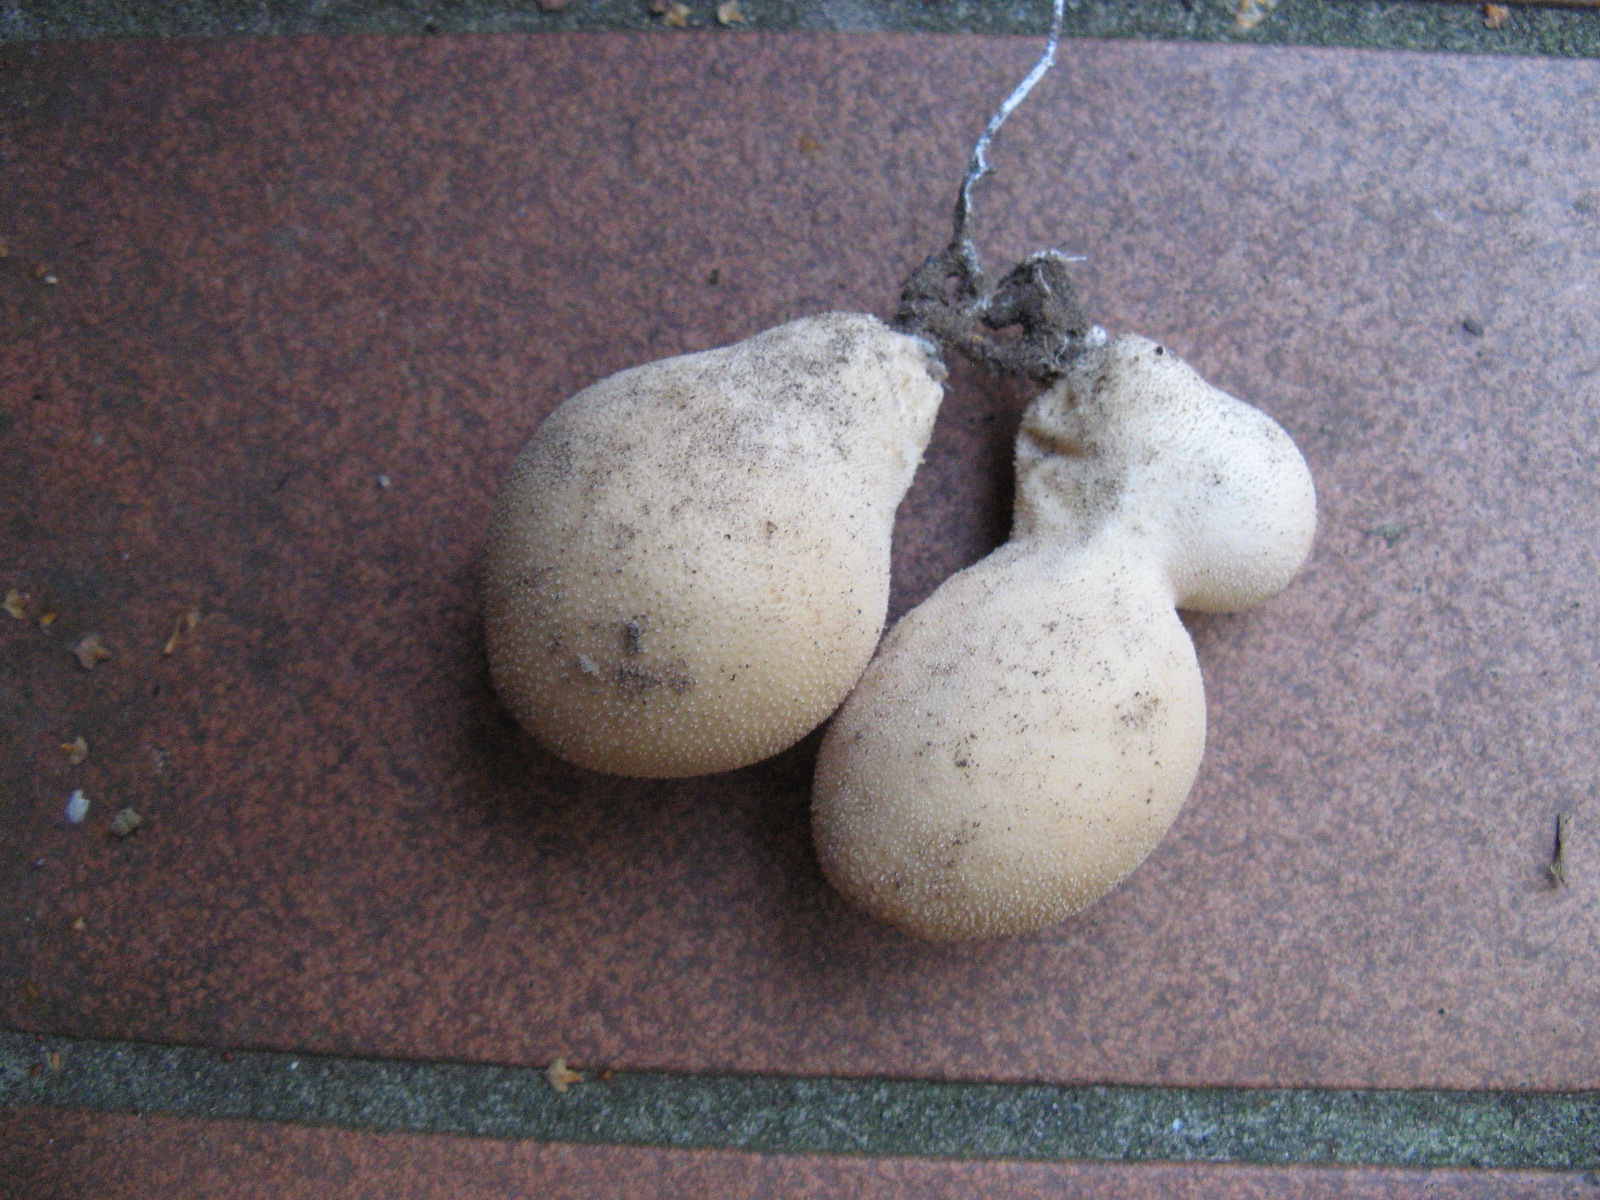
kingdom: Fungi
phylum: Basidiomycota
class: Agaricomycetes
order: Agaricales
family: Lycoperdaceae
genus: Apioperdon
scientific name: Apioperdon pyriforme
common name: pære-støvbold
